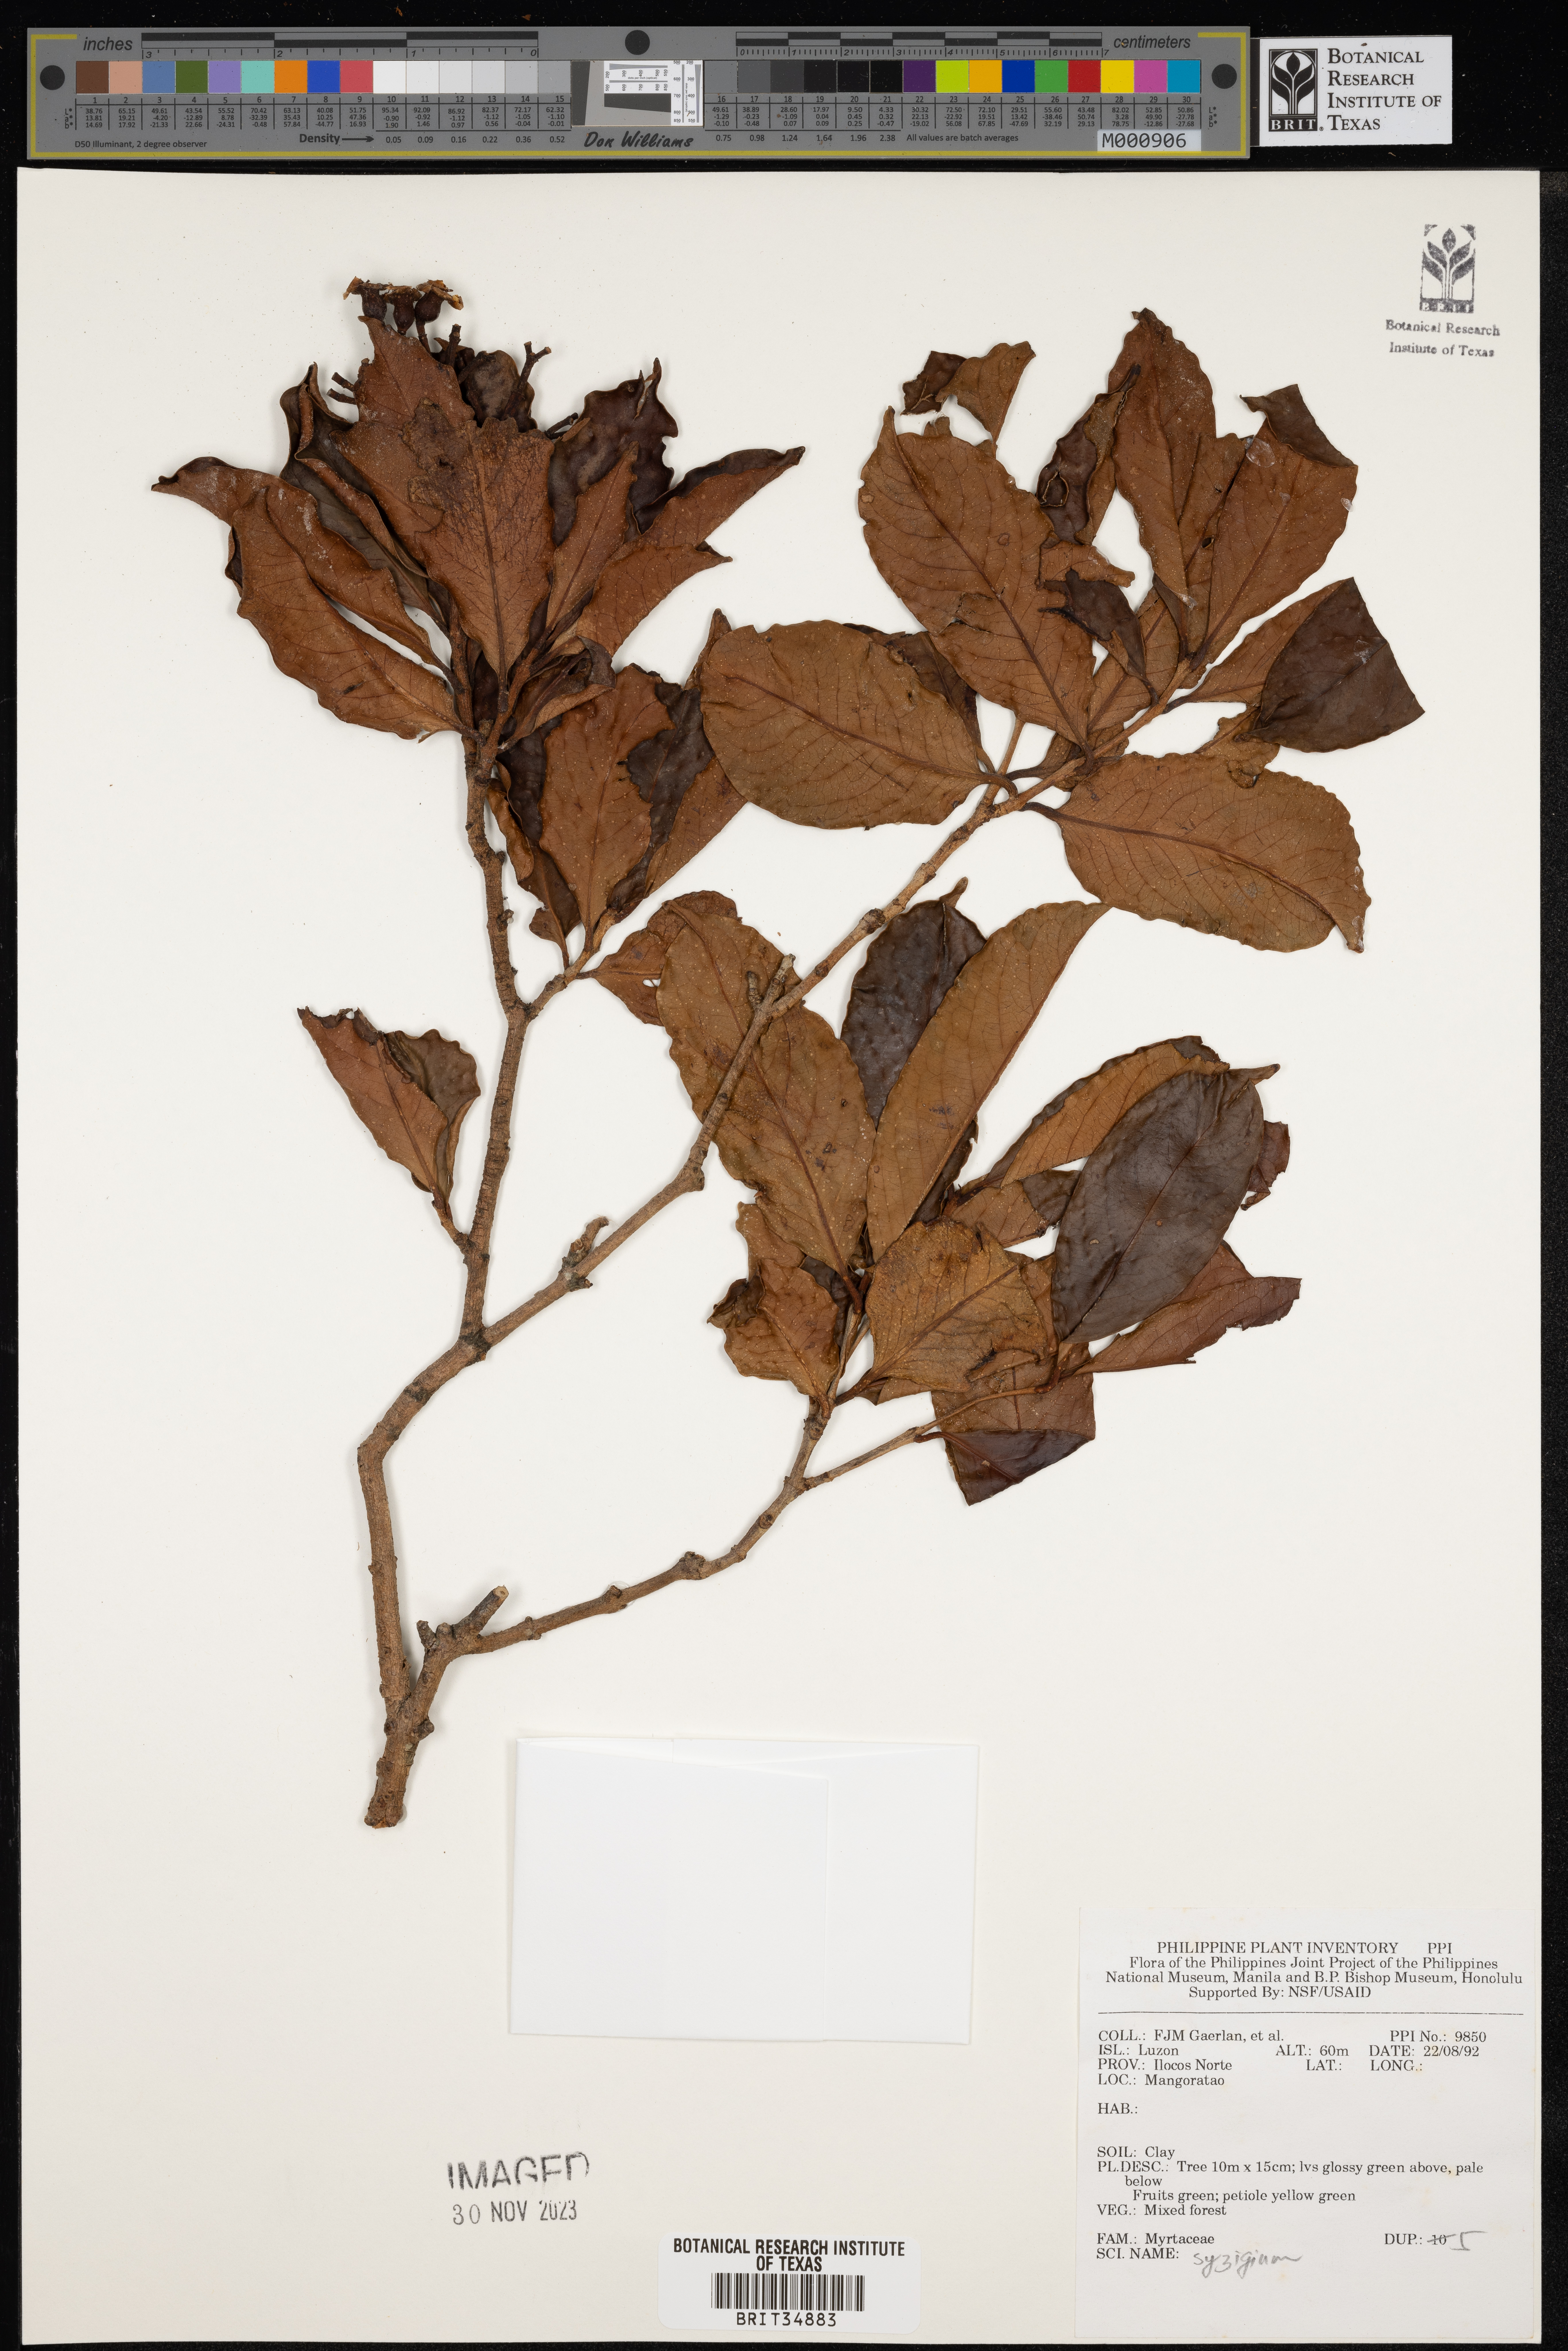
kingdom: Plantae
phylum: Tracheophyta
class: Magnoliopsida
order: Myrtales
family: Myrtaceae
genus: Syzygium
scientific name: Syzygium
